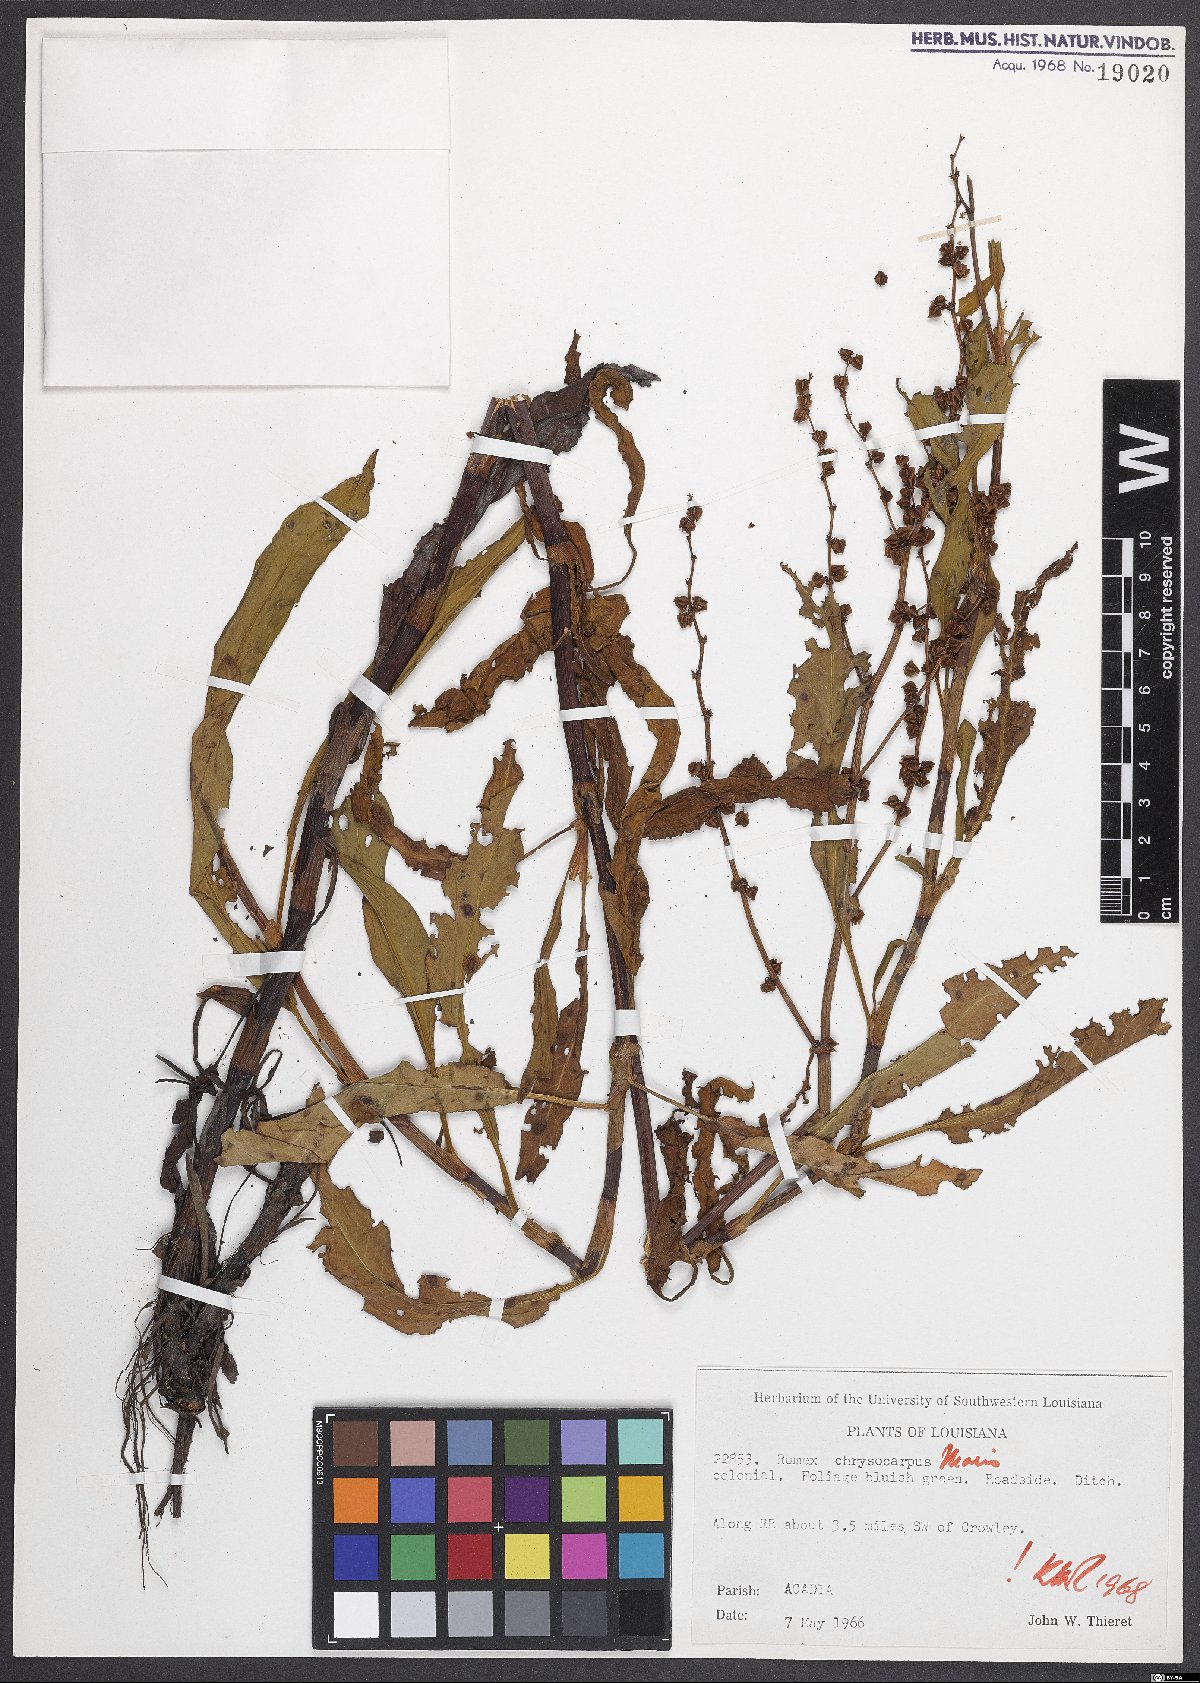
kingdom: Plantae
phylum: Tracheophyta
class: Magnoliopsida
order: Caryophyllales
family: Polygonaceae
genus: Rumex
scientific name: Rumex chrysocarpos
